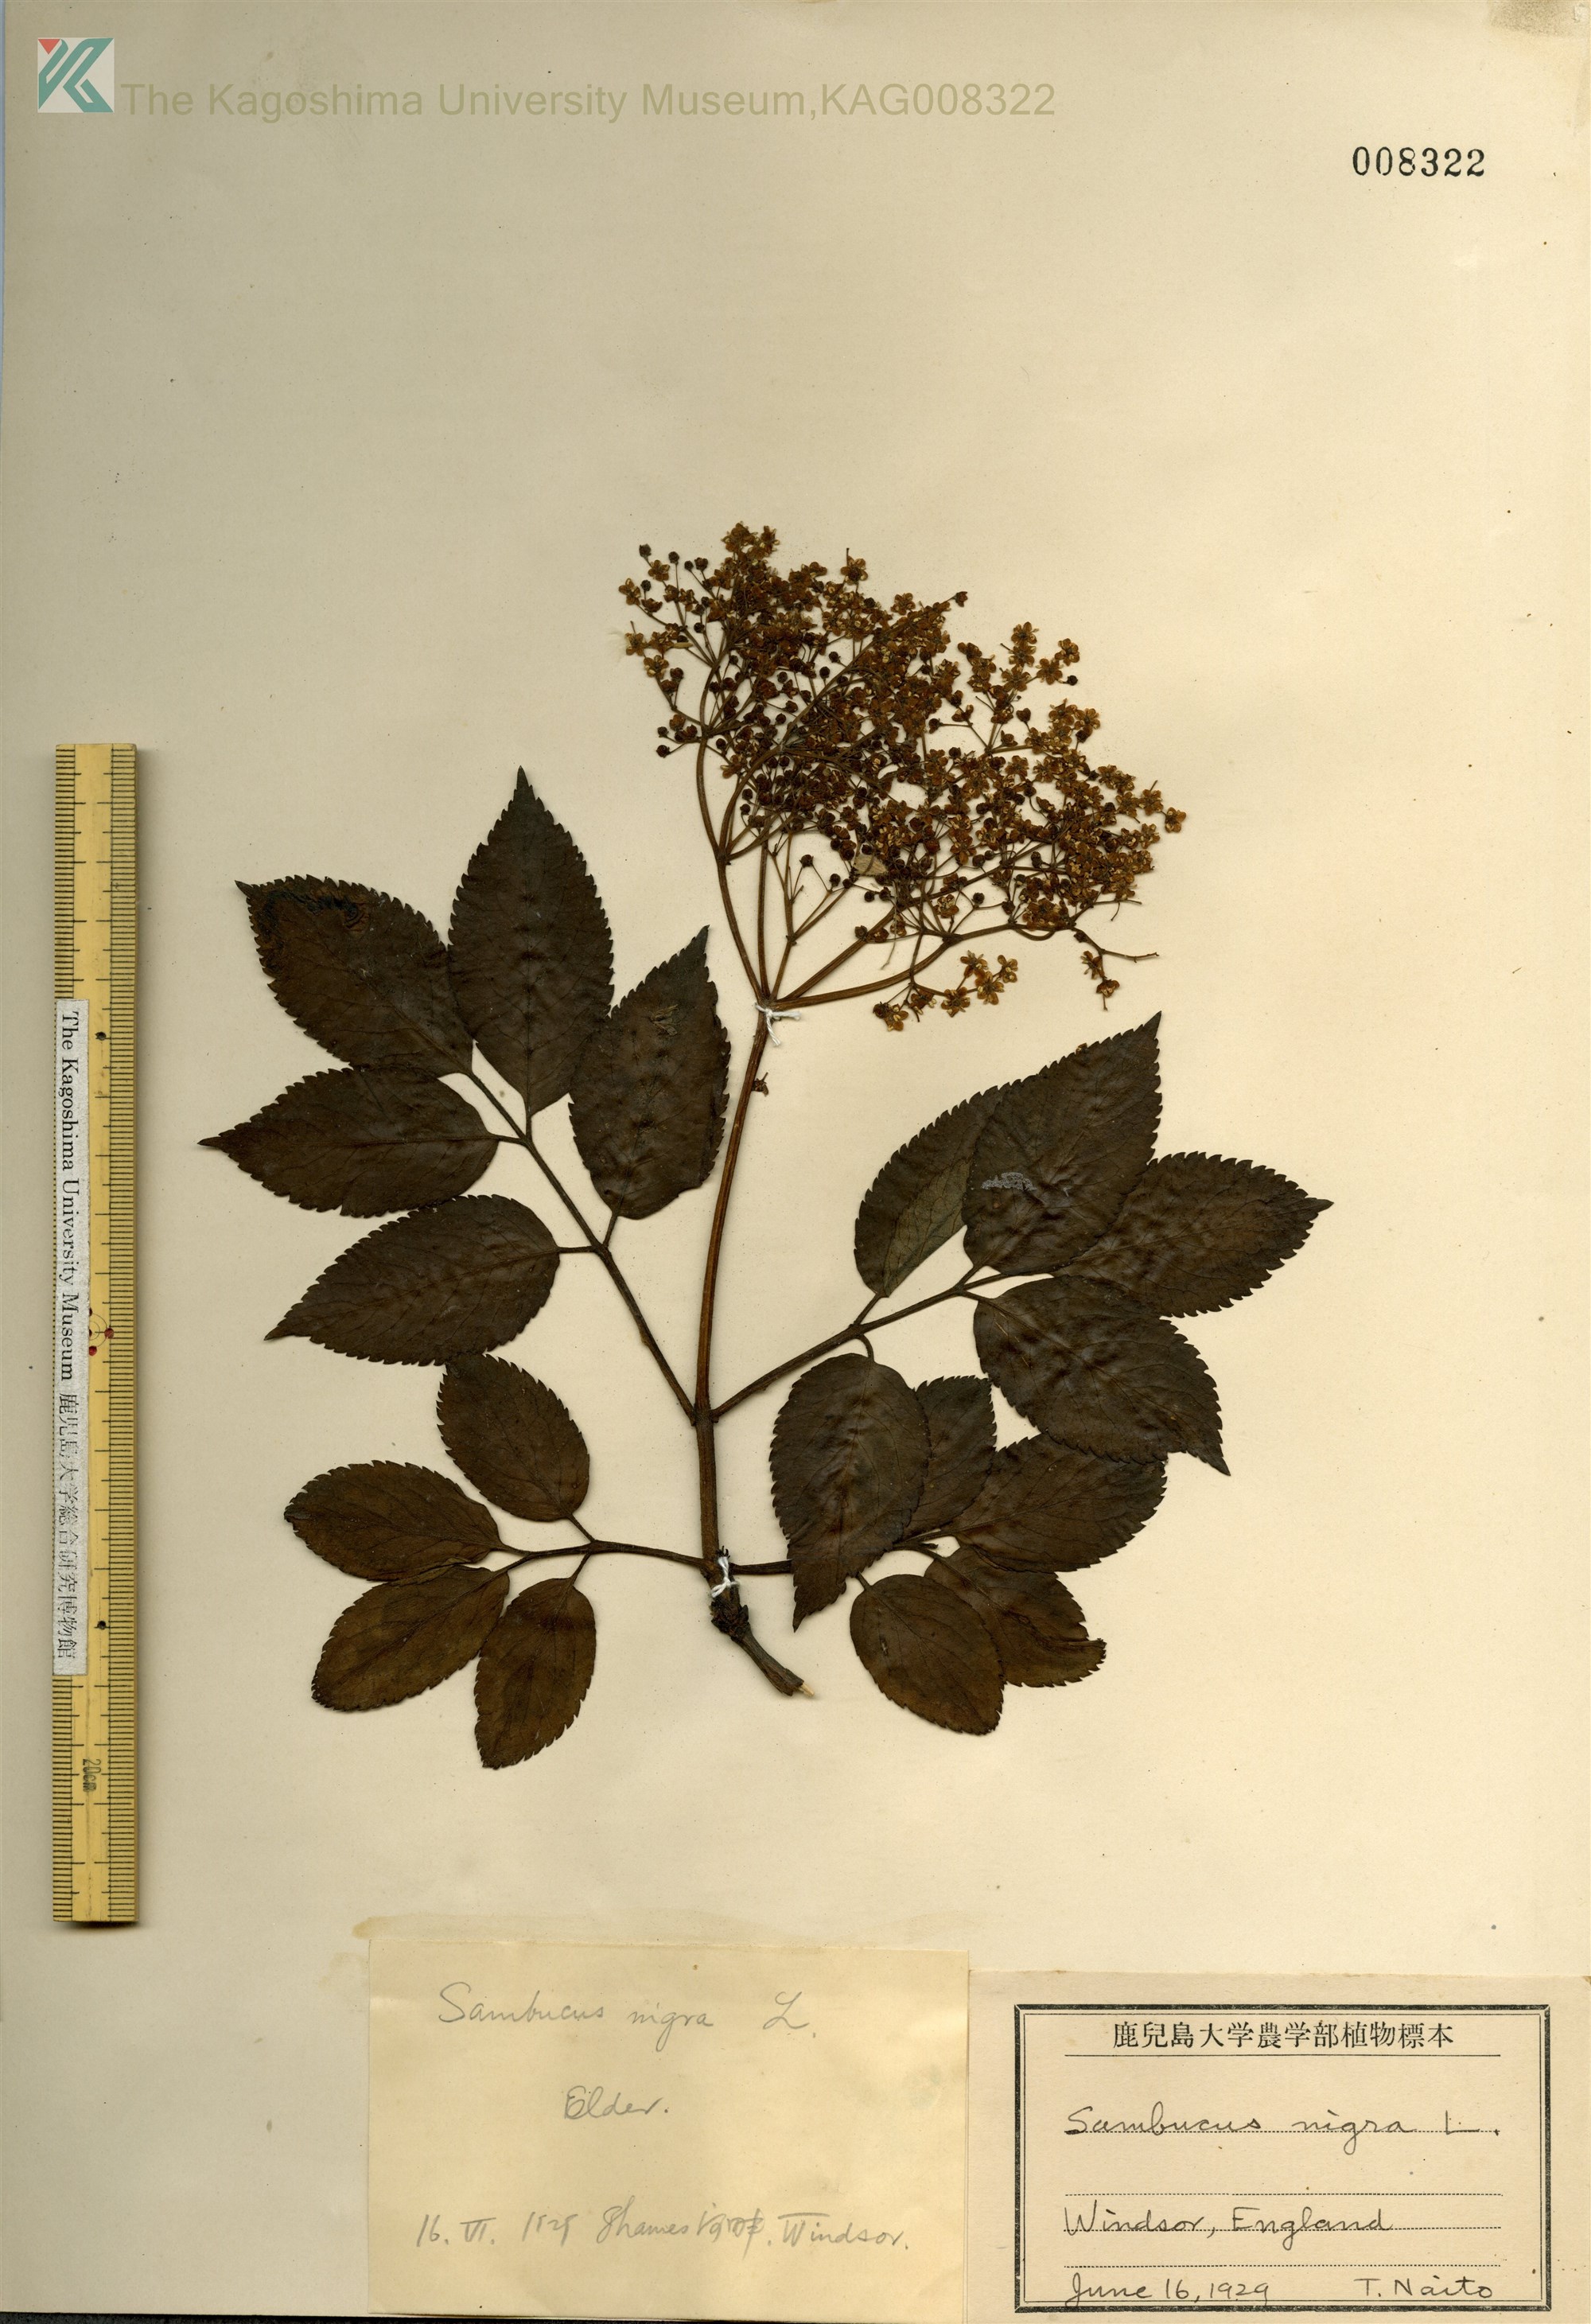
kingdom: Plantae
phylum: Tracheophyta
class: Magnoliopsida
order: Dipsacales
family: Viburnaceae
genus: Sambucus
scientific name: Sambucus nigra
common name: Elder
